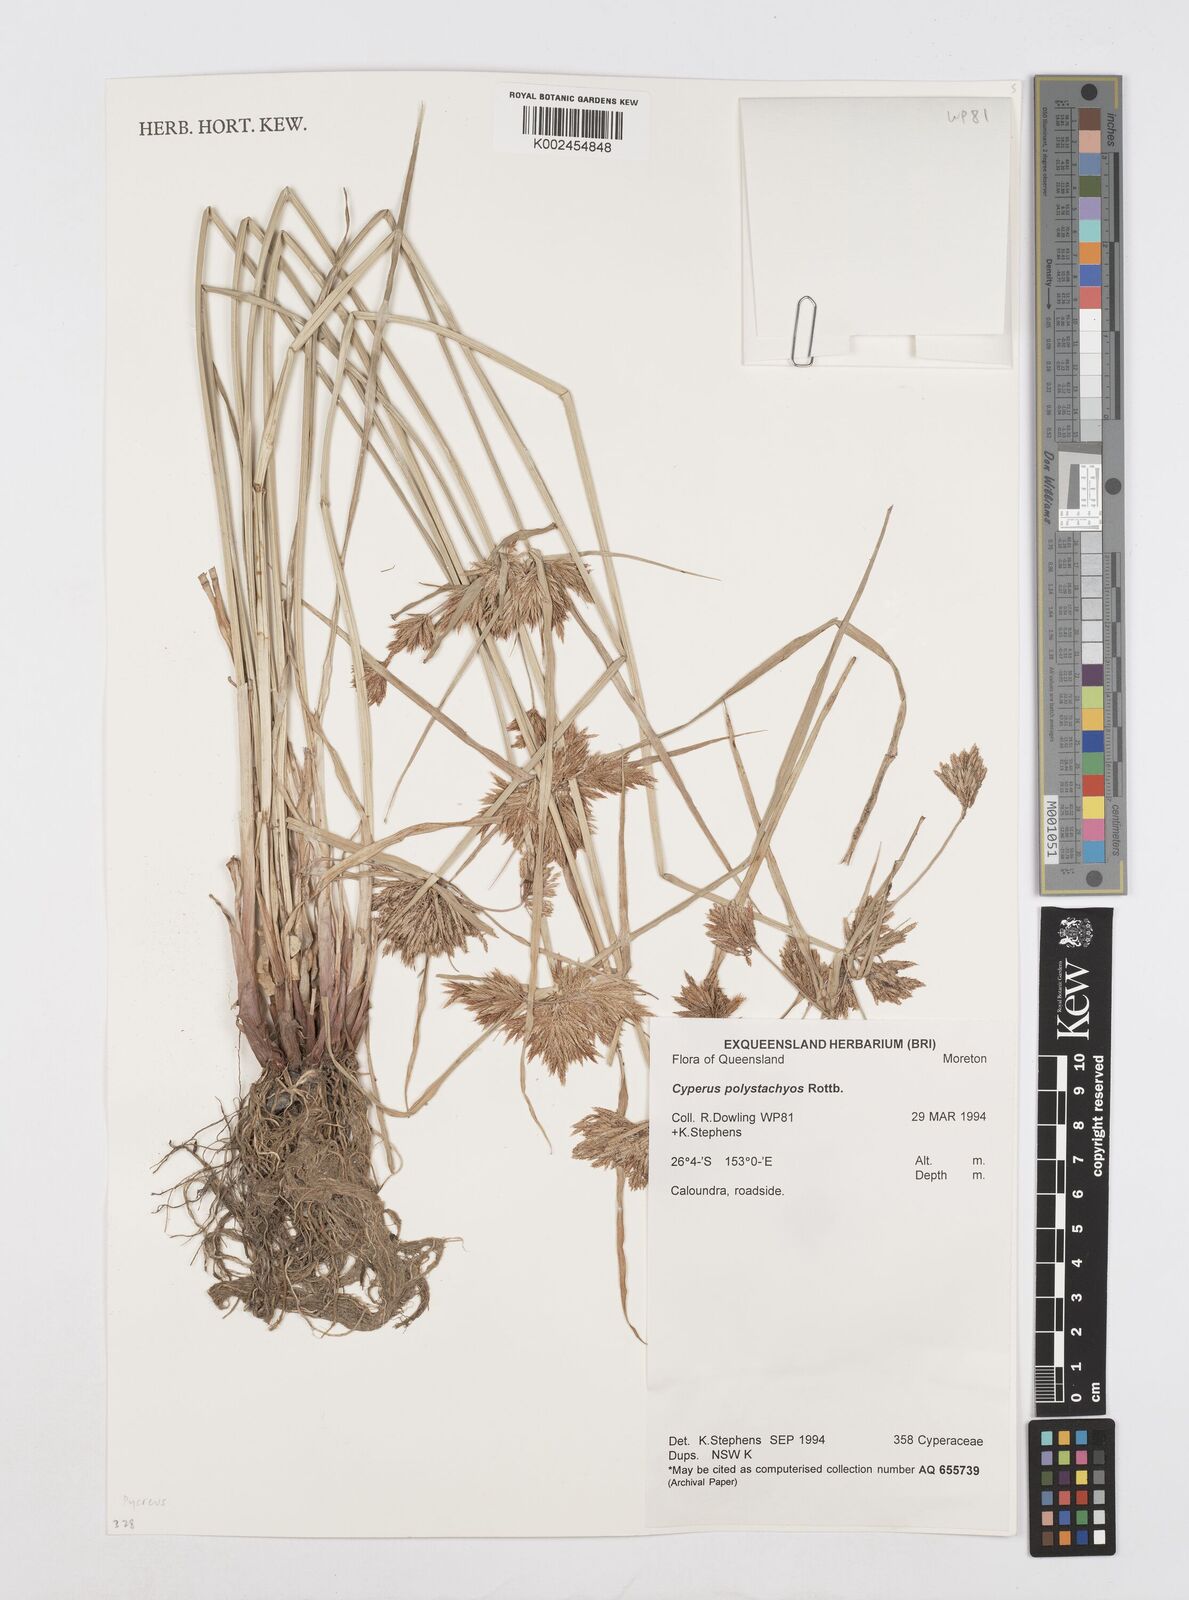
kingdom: Plantae
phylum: Tracheophyta
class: Liliopsida
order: Poales
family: Cyperaceae
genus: Cyperus
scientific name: Cyperus polystachyos
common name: Bunchy flat sedge
